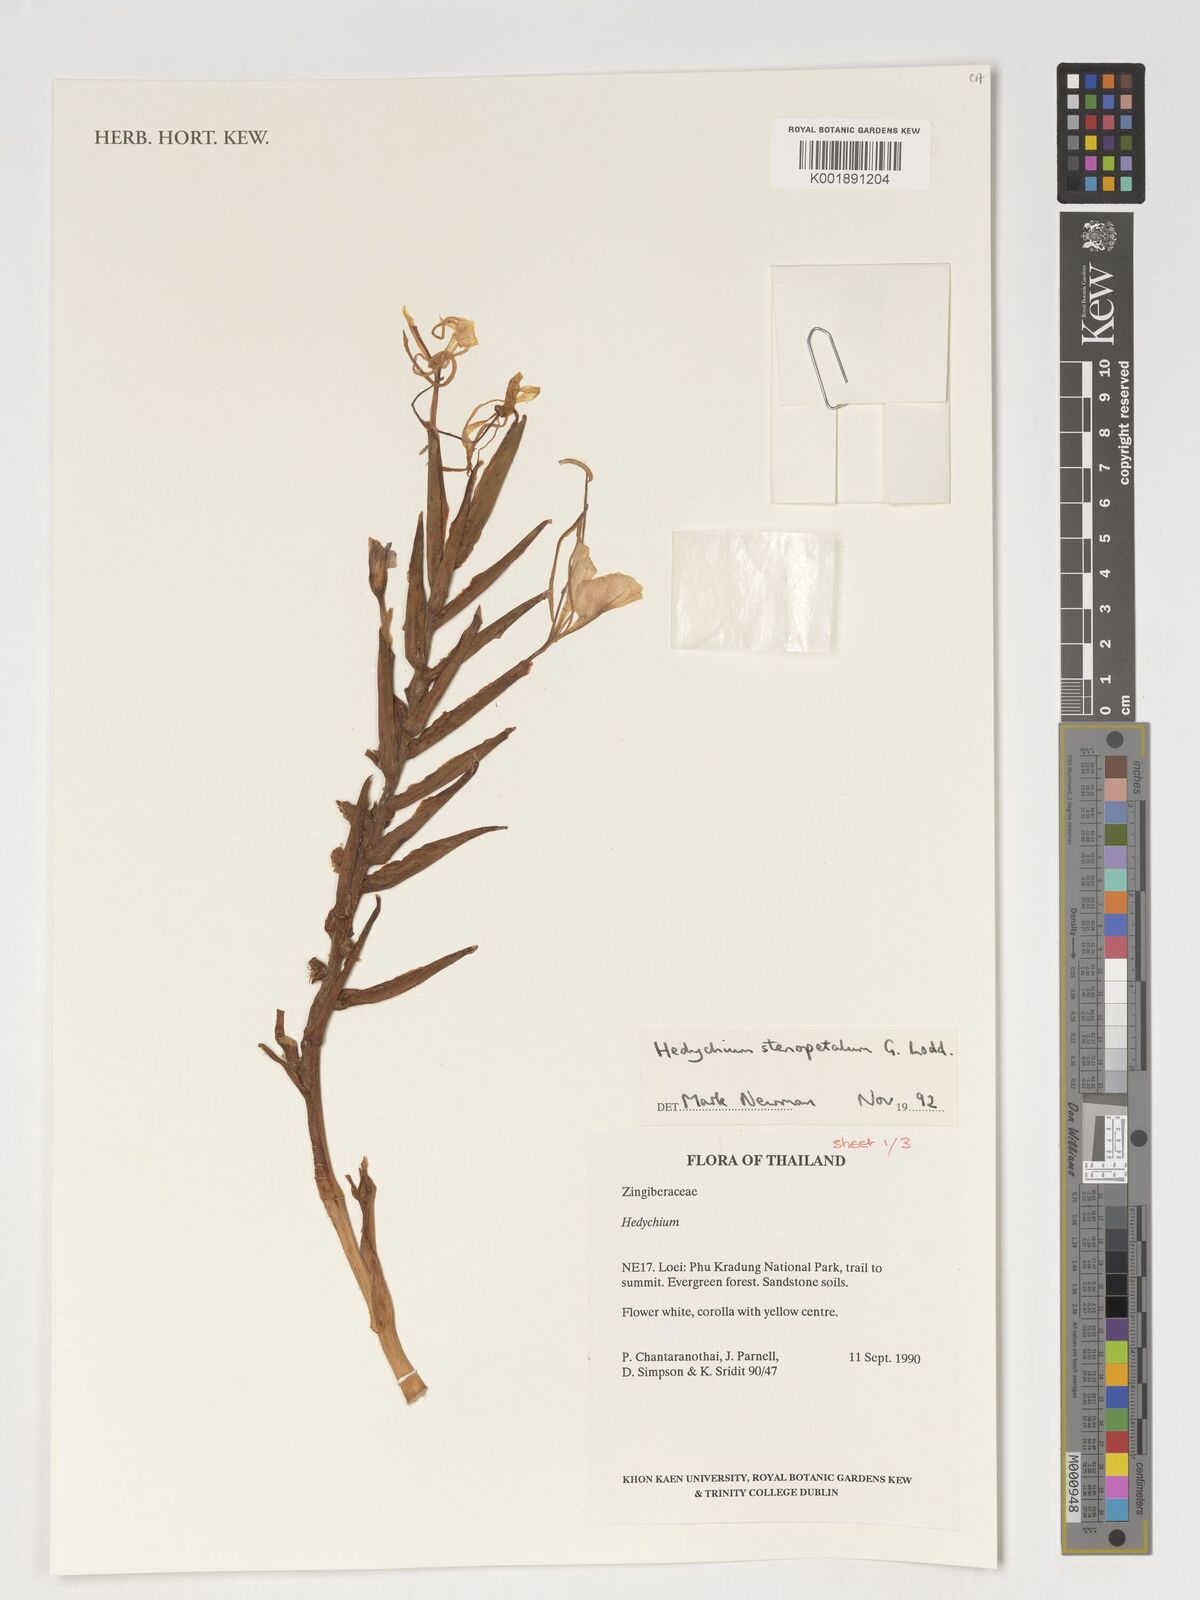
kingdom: Plantae
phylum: Tracheophyta
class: Liliopsida
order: Zingiberales
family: Zingiberaceae
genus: Hedychium
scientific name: Hedychium stenopetalum
